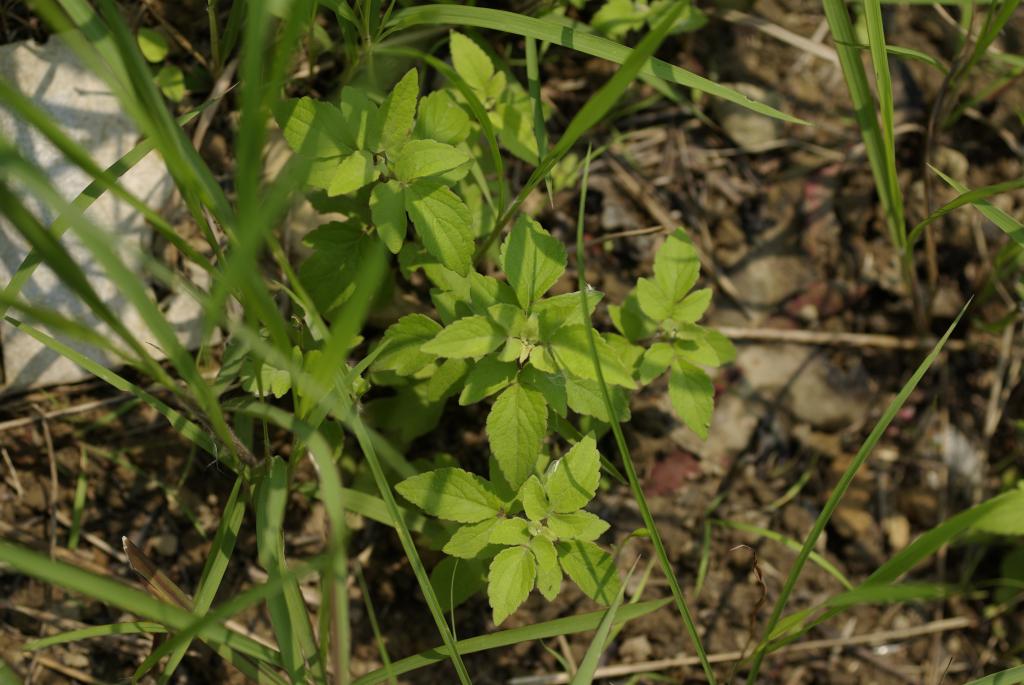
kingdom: Plantae
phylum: Tracheophyta
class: Magnoliopsida
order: Asterales
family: Asteraceae
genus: Eupatorium
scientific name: Eupatorium formosanum
